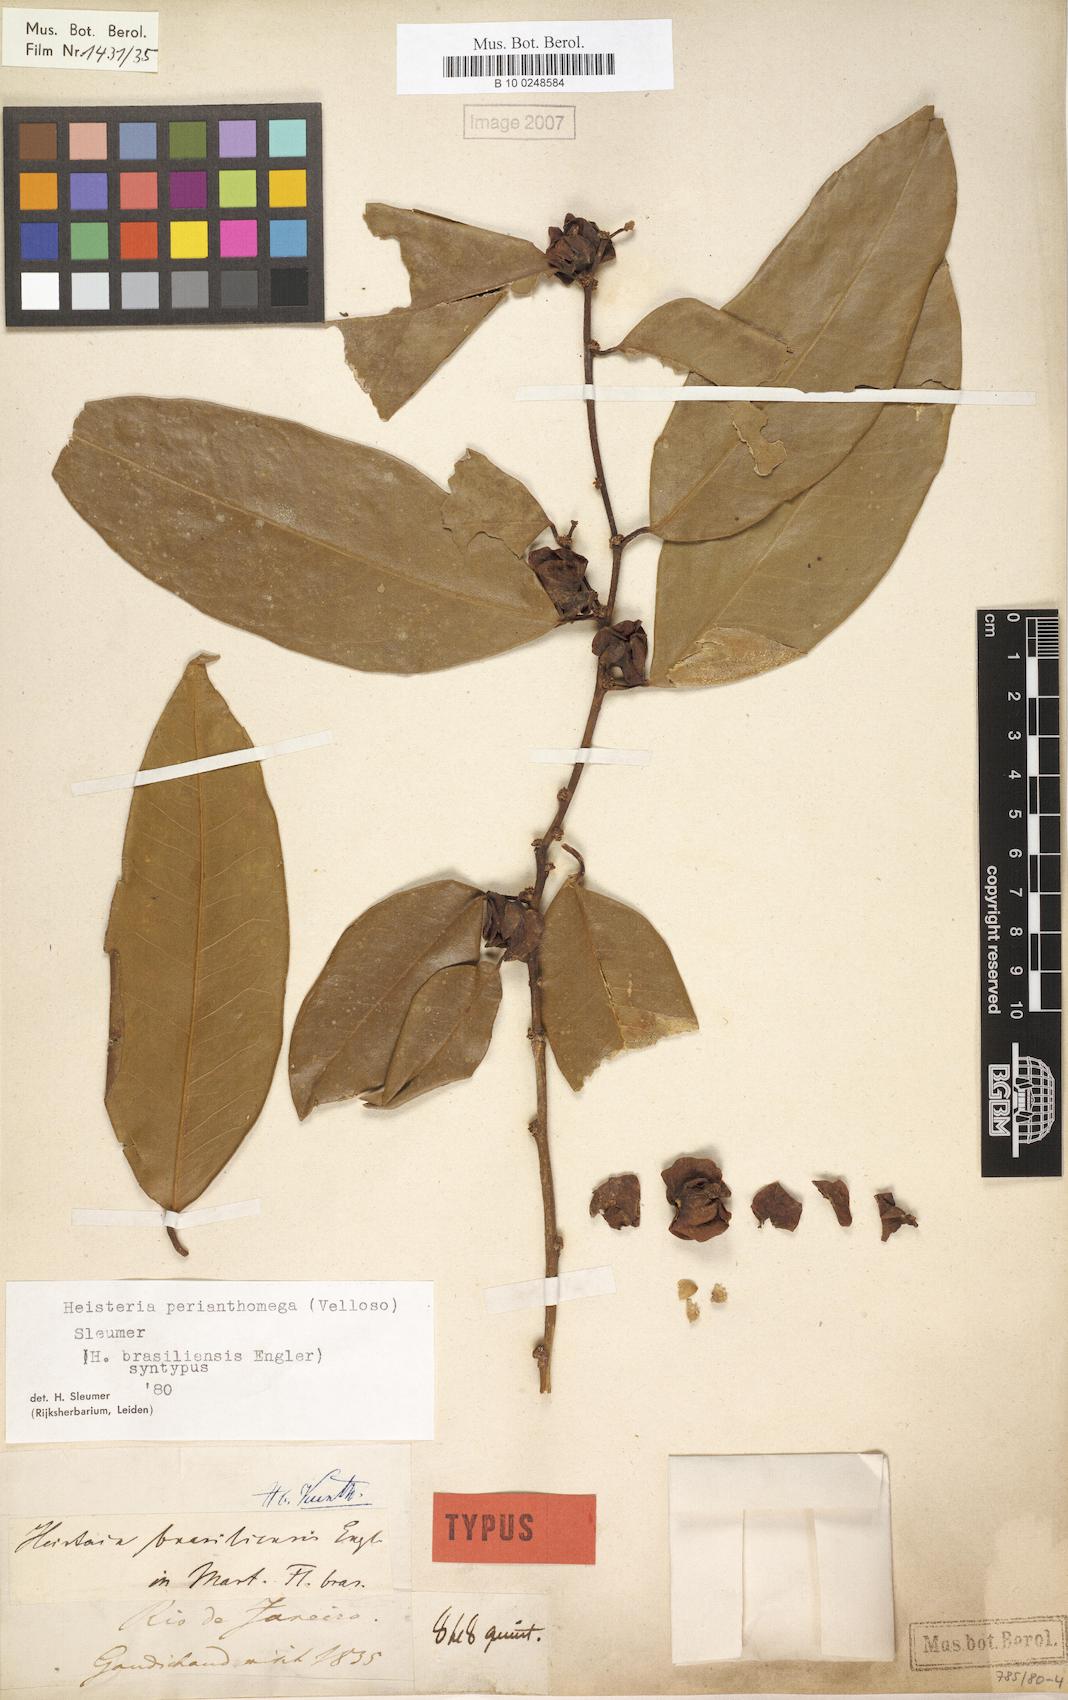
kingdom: Plantae
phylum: Tracheophyta
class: Magnoliopsida
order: Santalales
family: Erythropalaceae
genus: Heisteria
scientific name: Heisteria perianthomega
